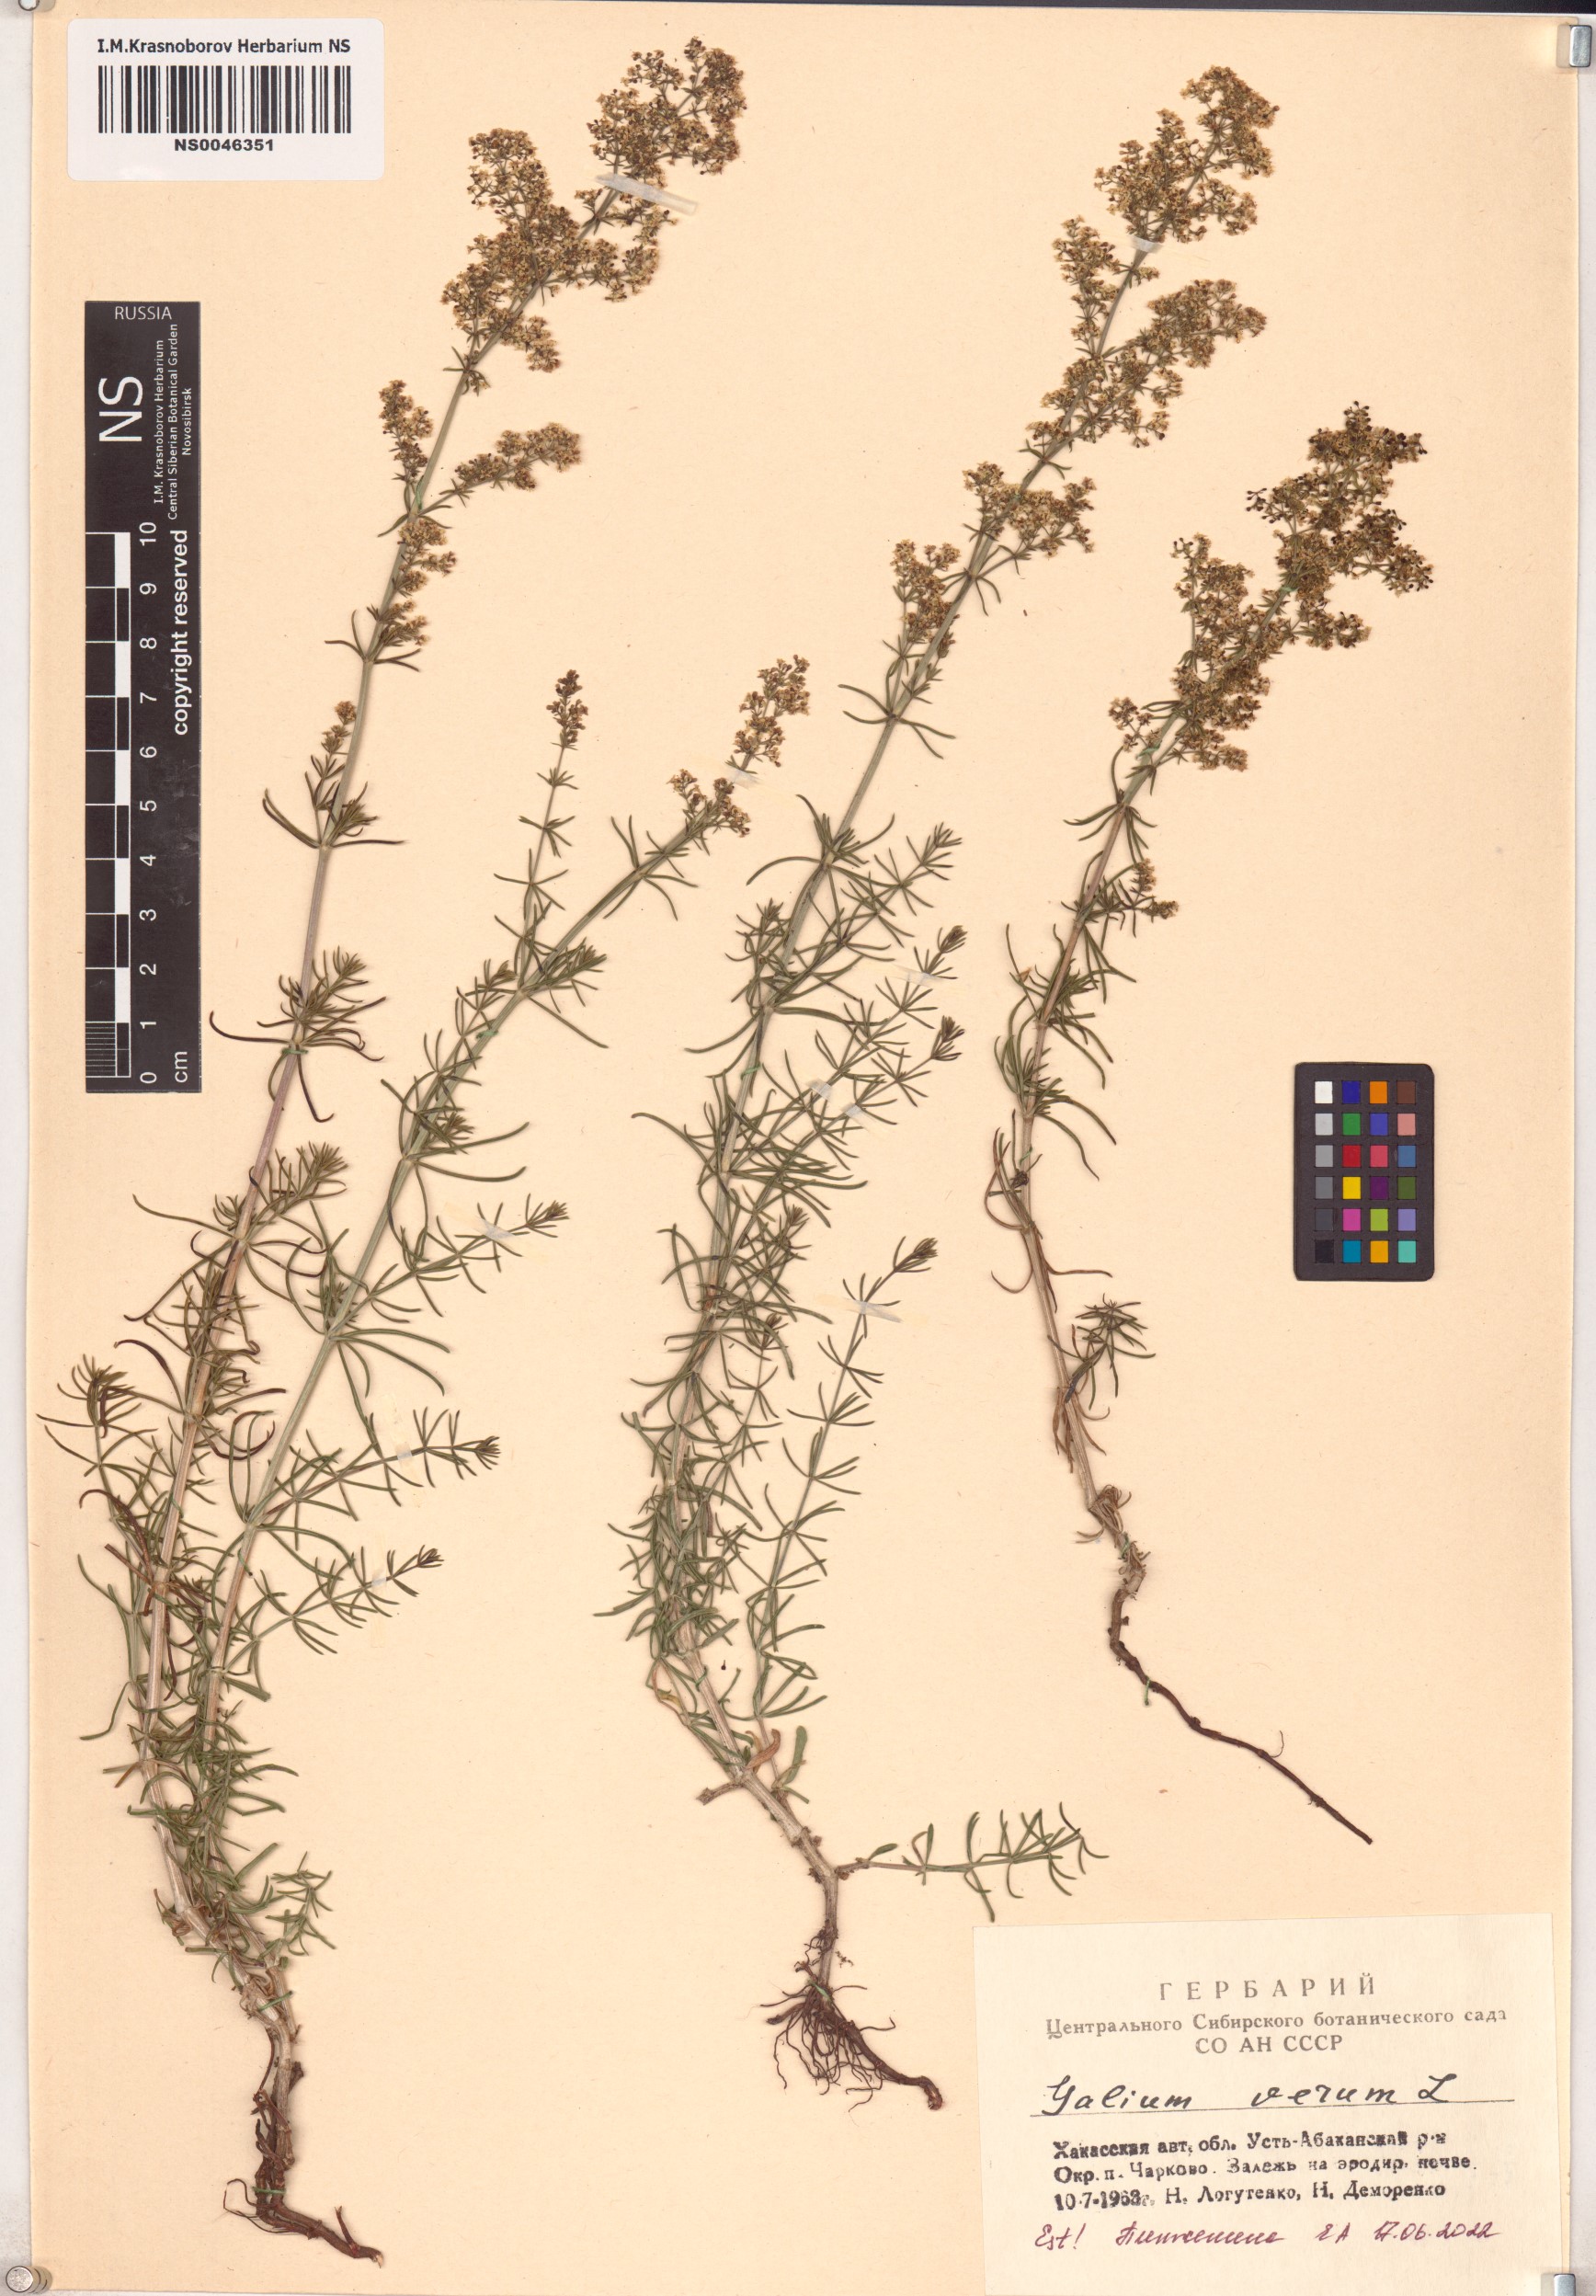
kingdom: Plantae
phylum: Tracheophyta
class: Magnoliopsida
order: Gentianales
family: Rubiaceae
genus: Galium
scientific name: Galium verum
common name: Lady's bedstraw
